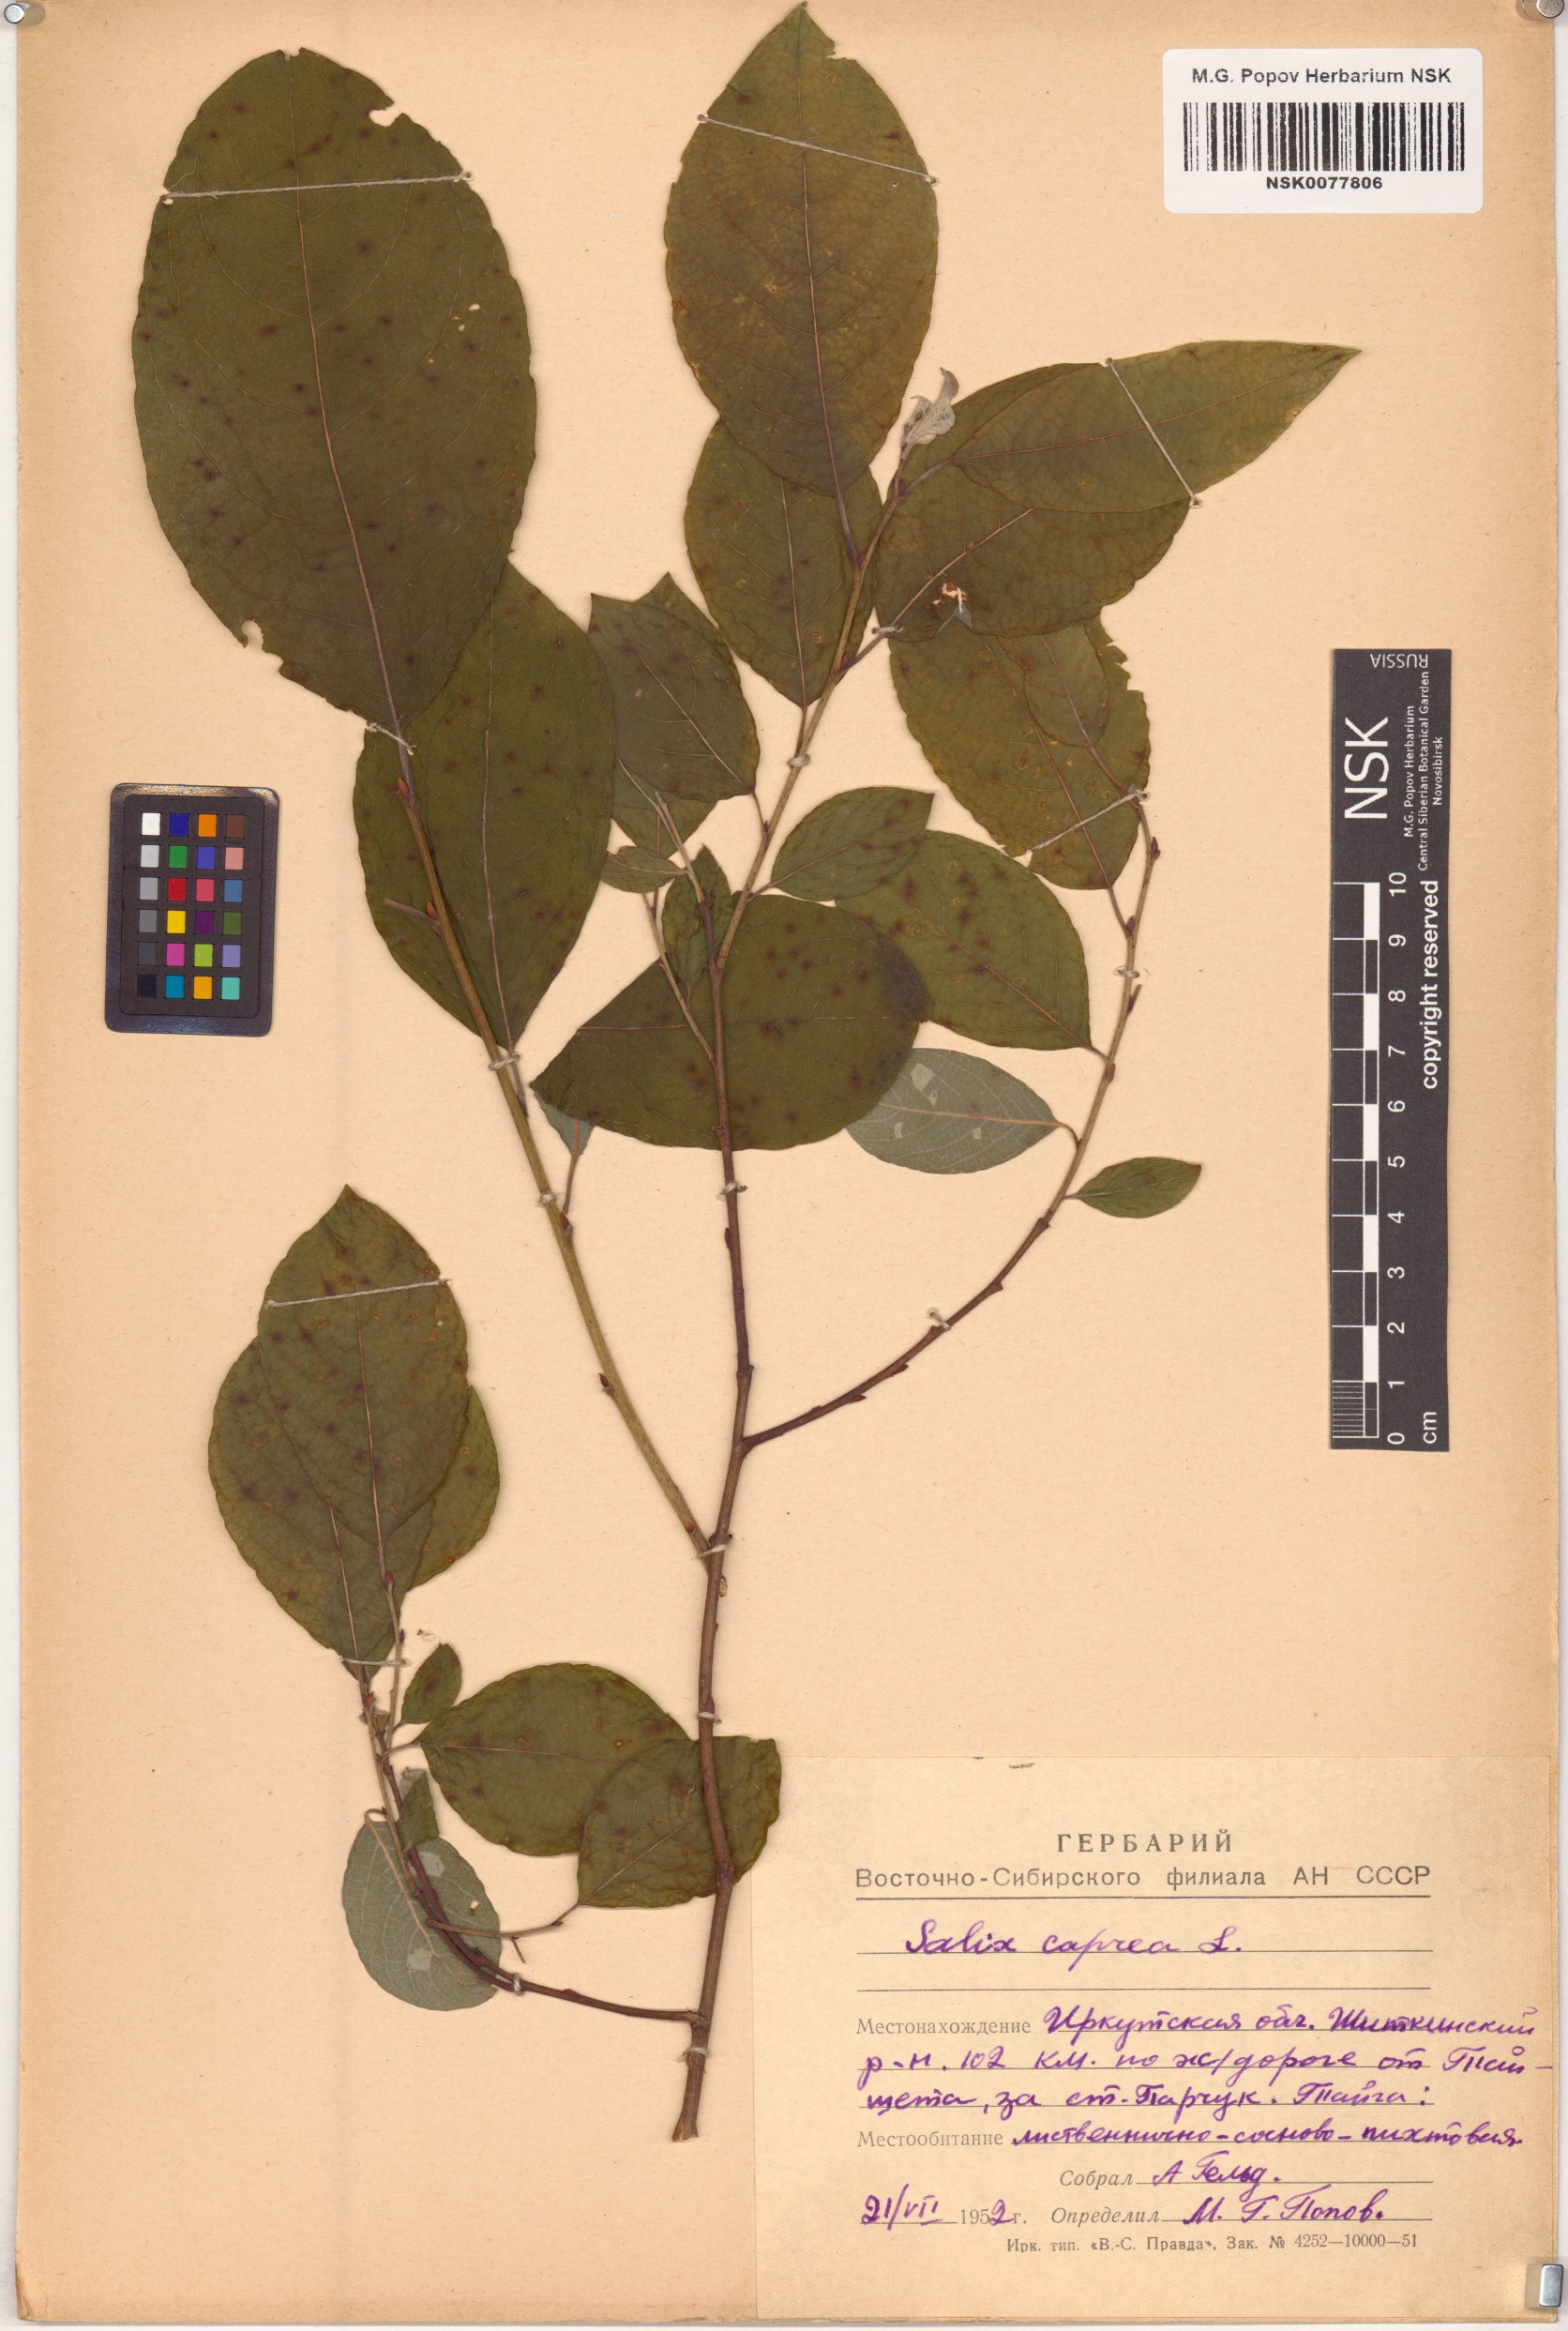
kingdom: Plantae
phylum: Tracheophyta
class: Magnoliopsida
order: Malpighiales
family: Salicaceae
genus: Salix
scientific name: Salix caprea
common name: Goat willow
